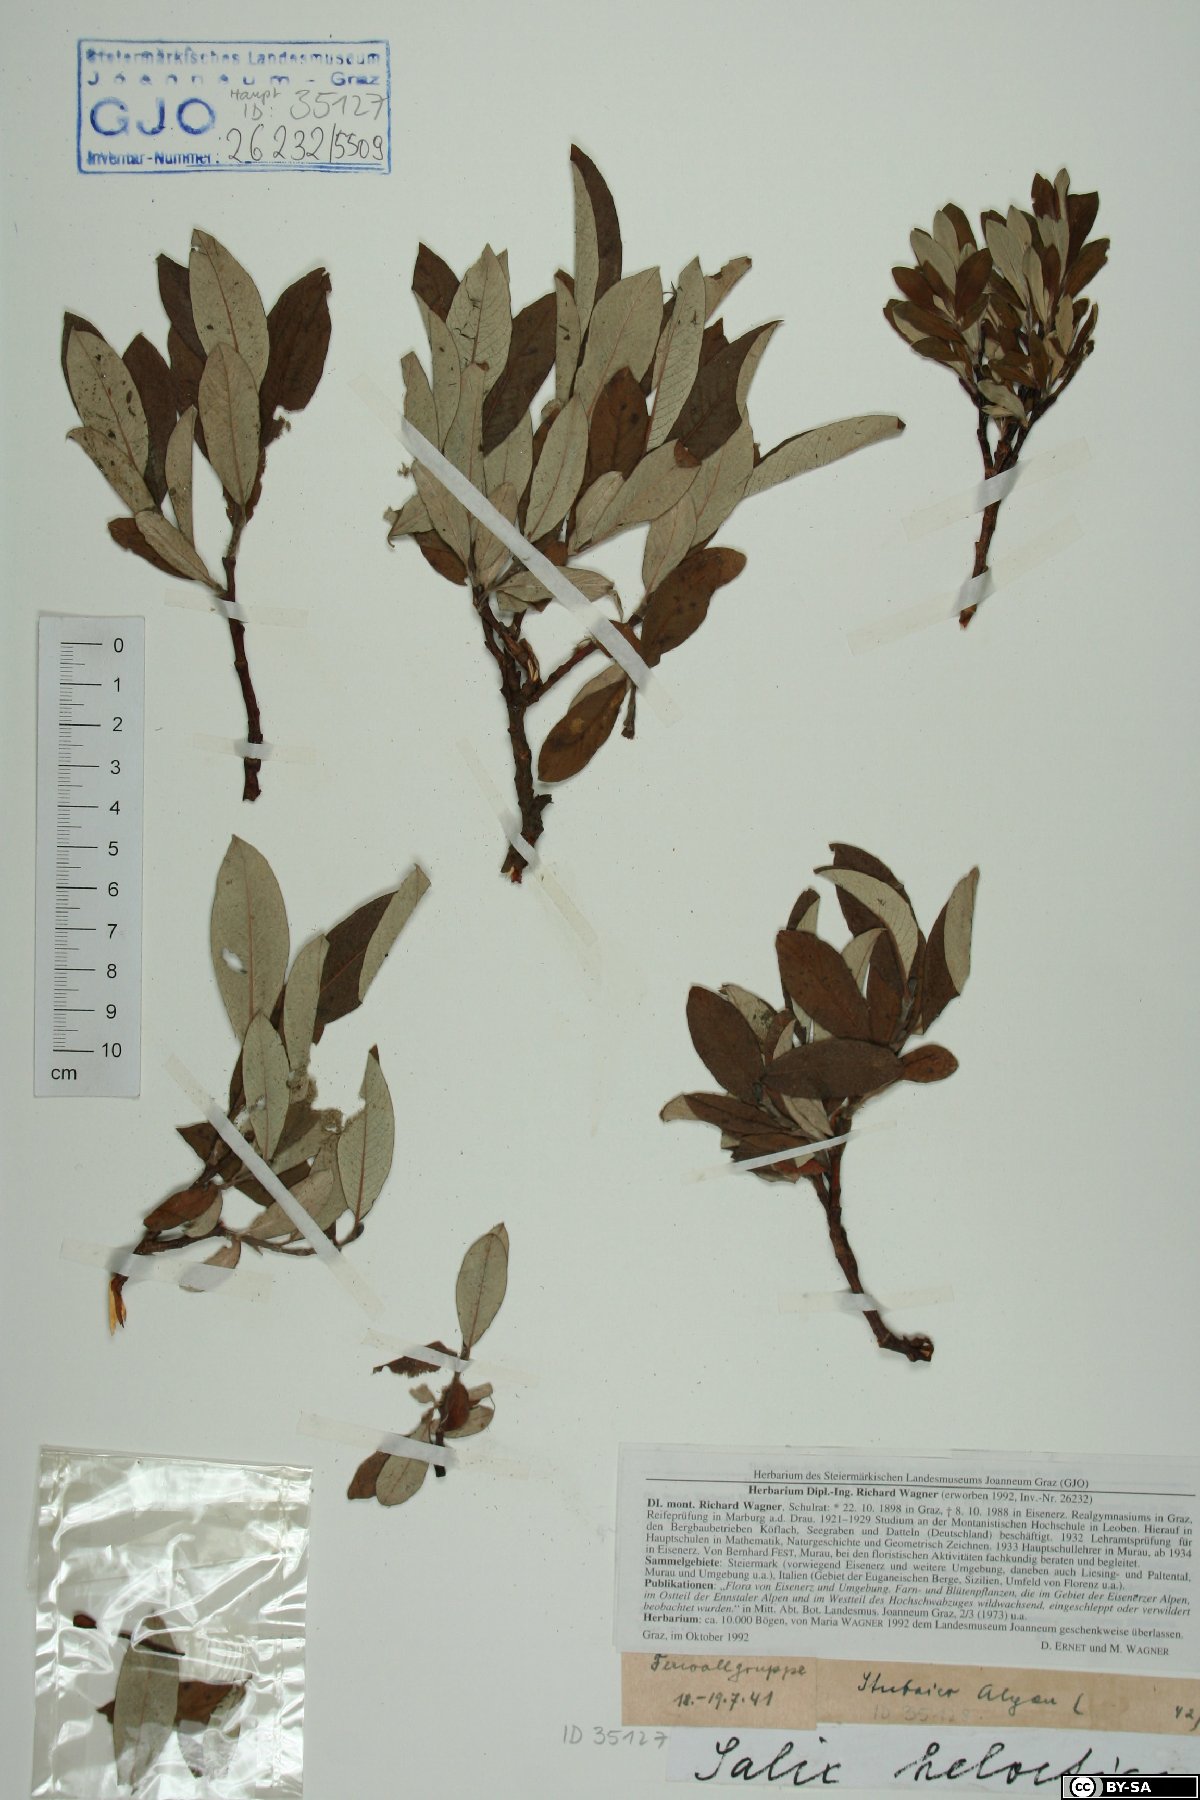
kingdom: Plantae
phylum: Tracheophyta
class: Magnoliopsida
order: Malpighiales
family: Salicaceae
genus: Salix
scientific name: Salix helvetica
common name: Swiss willow
